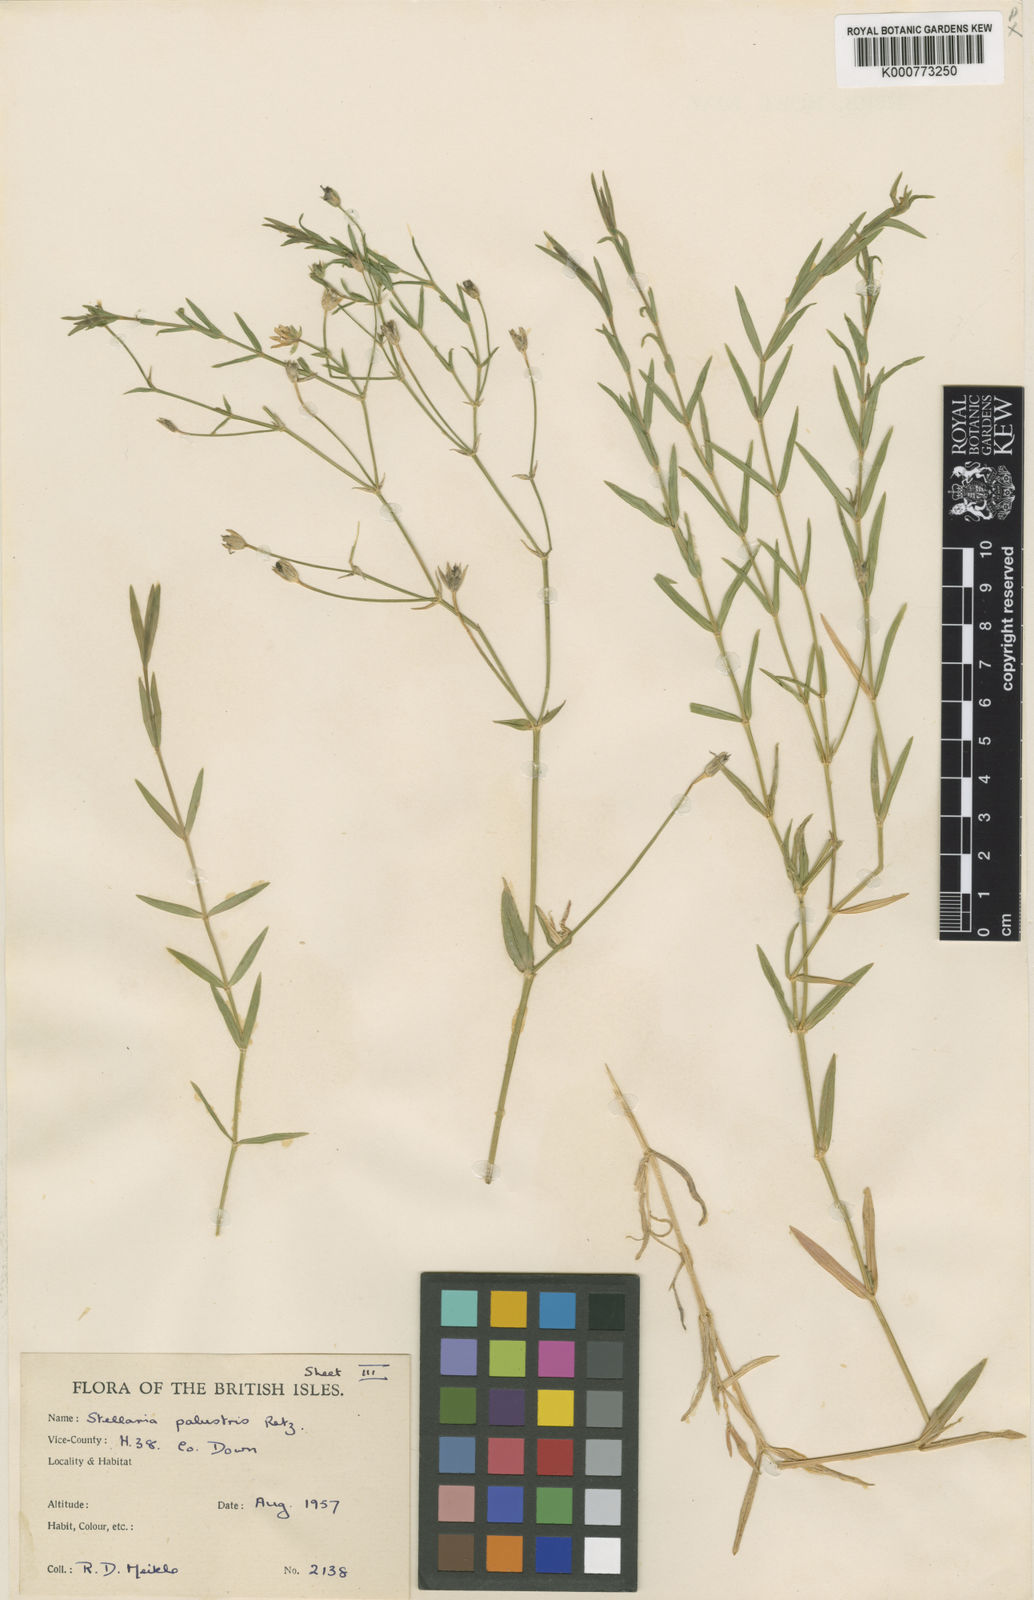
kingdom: Plantae
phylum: Tracheophyta
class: Magnoliopsida
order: Caryophyllales
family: Caryophyllaceae
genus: Stellaria
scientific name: Stellaria
